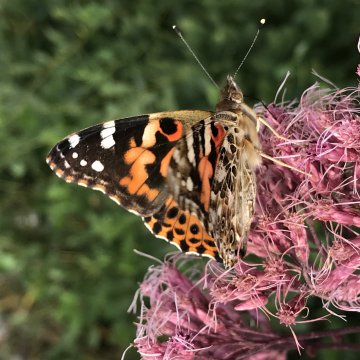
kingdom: Animalia
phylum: Arthropoda
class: Insecta
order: Lepidoptera
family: Nymphalidae
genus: Vanessa
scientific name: Vanessa cardui
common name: Painted Lady
